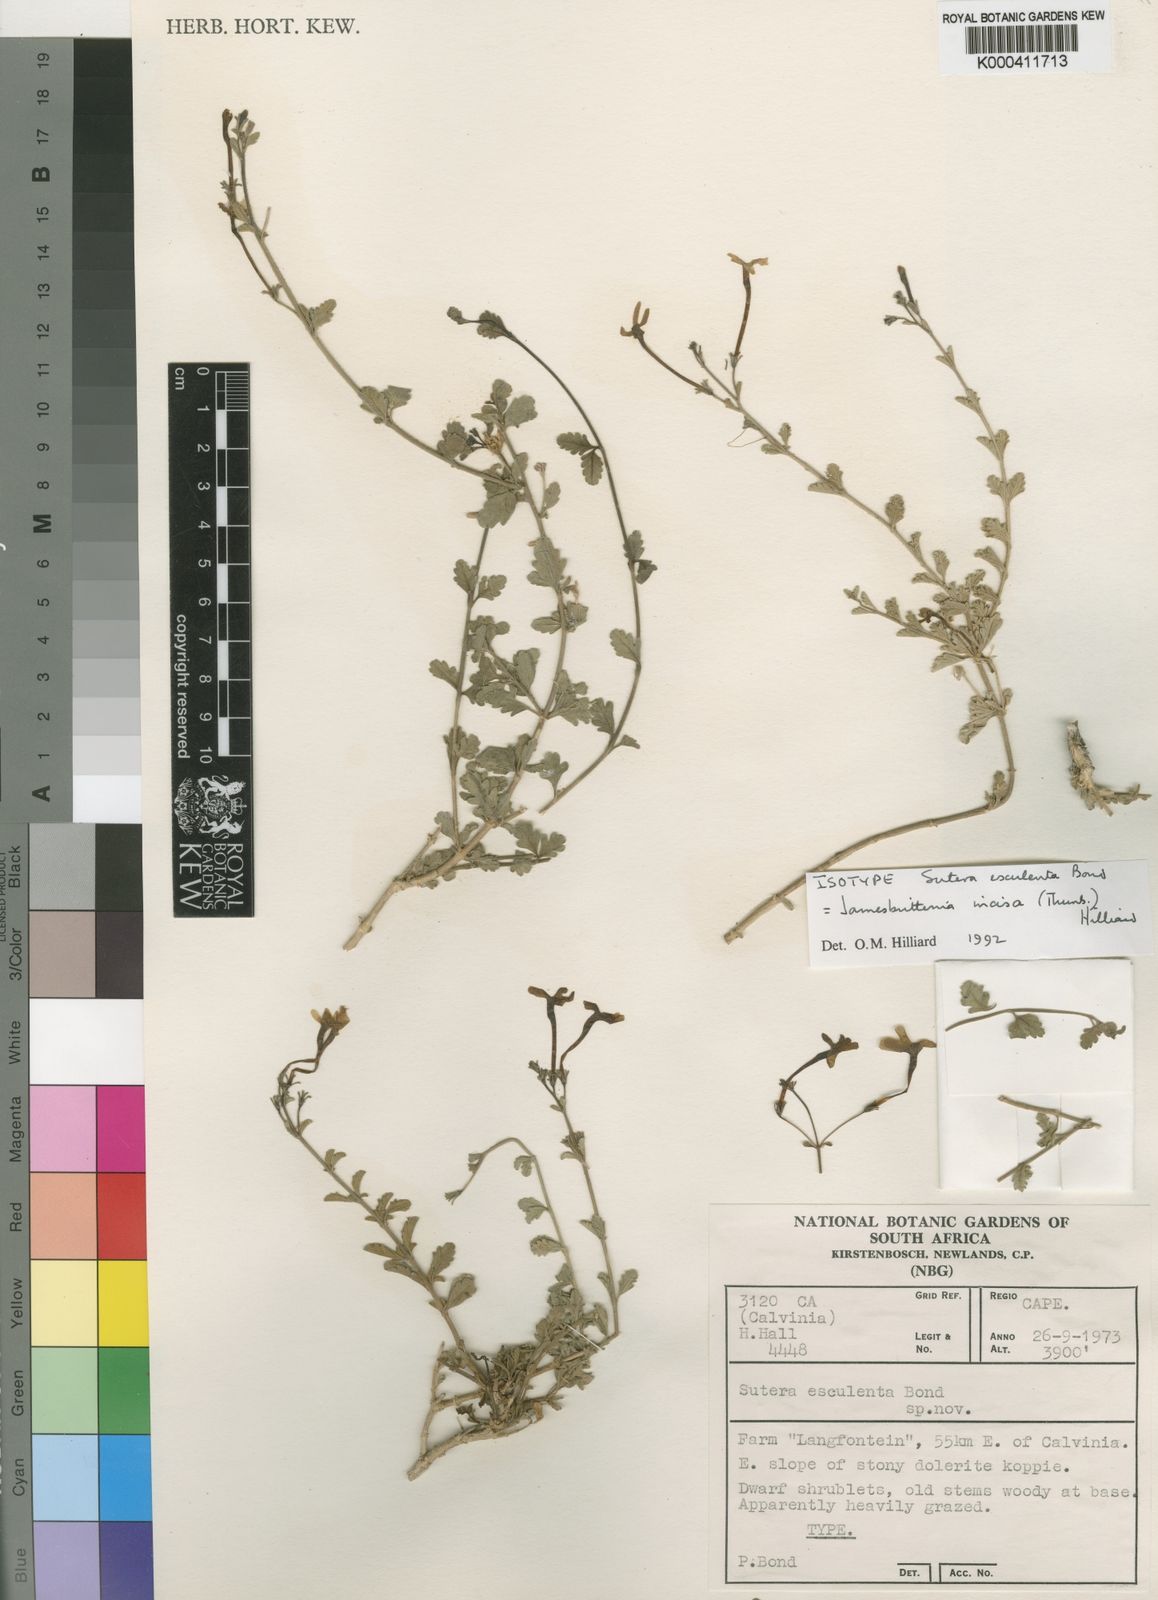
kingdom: Plantae
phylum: Tracheophyta
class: Magnoliopsida
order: Lamiales
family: Scrophulariaceae
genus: Jamesbrittenia
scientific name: Jamesbrittenia incisa
